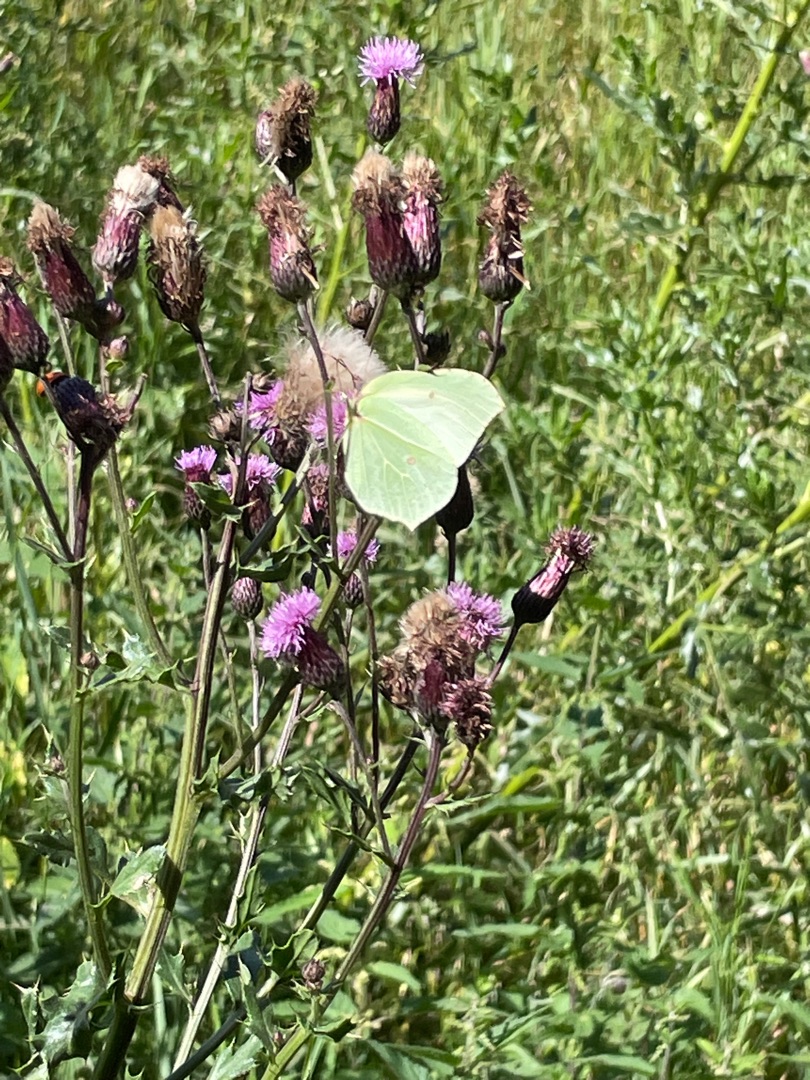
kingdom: Animalia
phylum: Arthropoda
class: Insecta
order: Lepidoptera
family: Pieridae
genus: Gonepteryx
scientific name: Gonepteryx rhamni
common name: Citronsommerfugl
